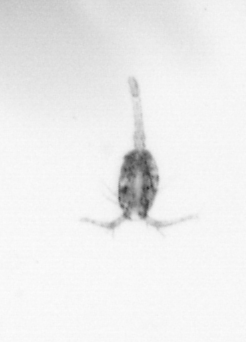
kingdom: Animalia
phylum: Arthropoda
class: Copepoda
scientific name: Copepoda
